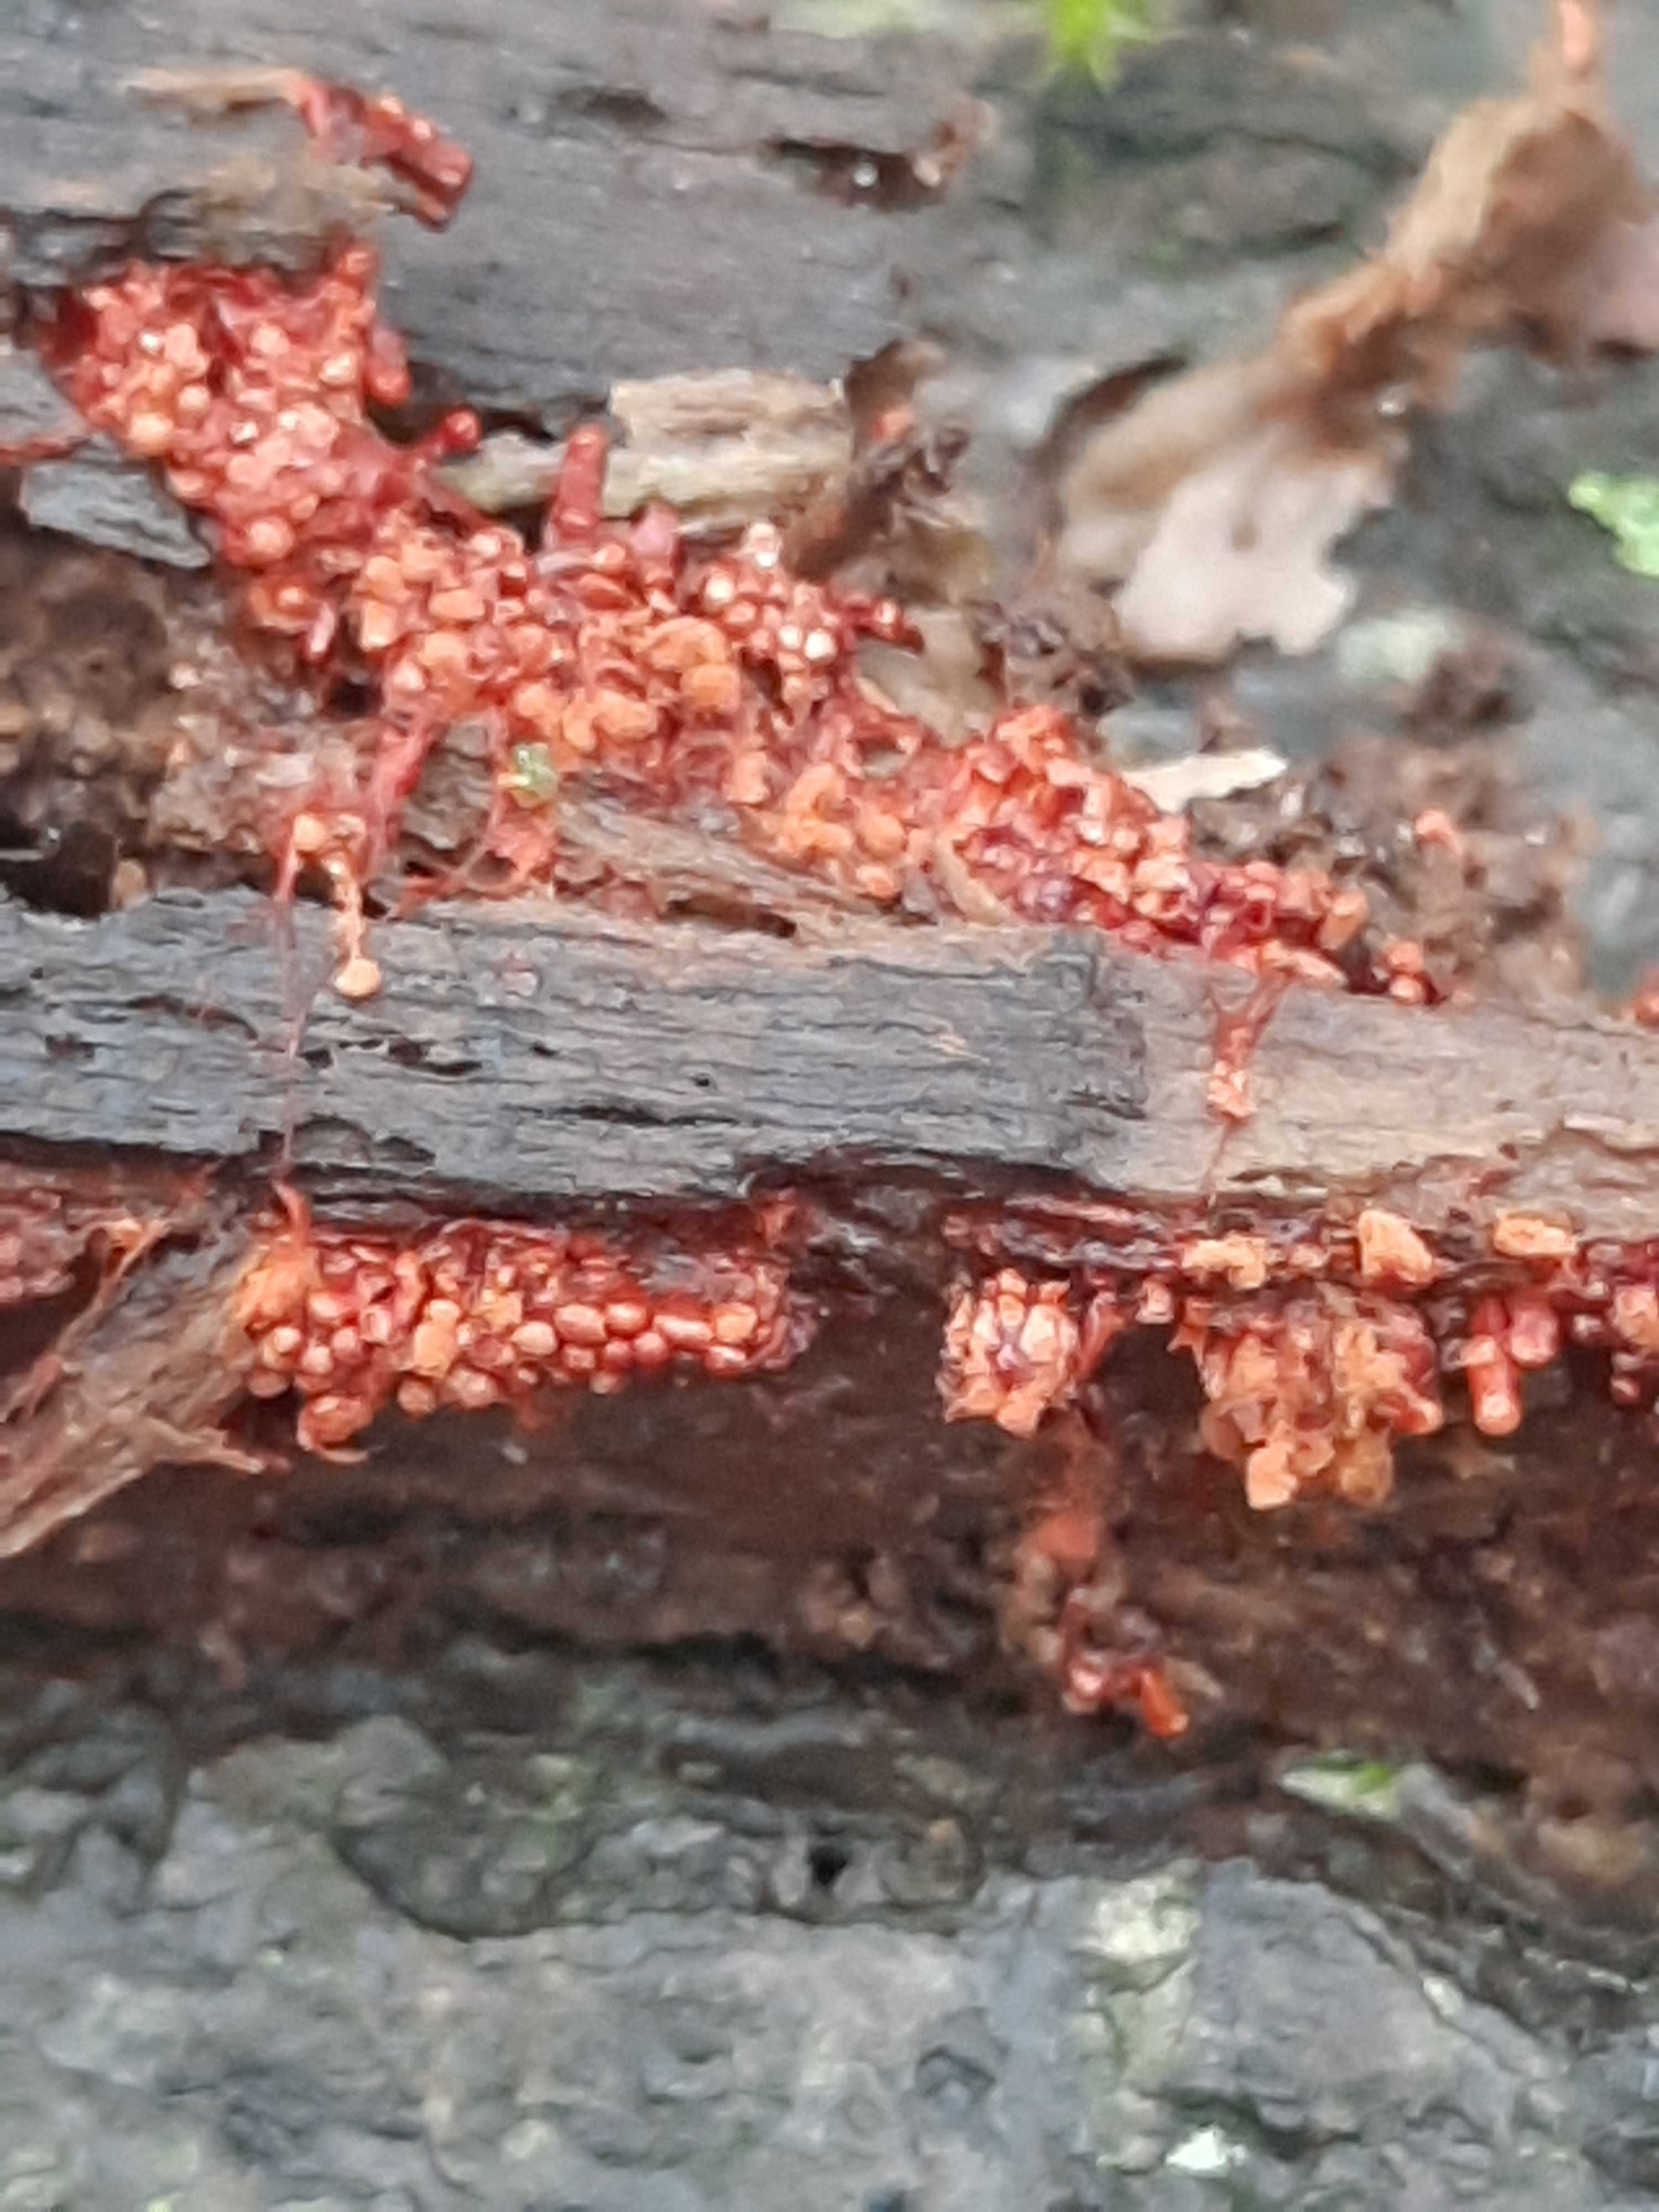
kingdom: Protozoa
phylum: Mycetozoa
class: Myxomycetes
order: Trichiales
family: Trichiaceae
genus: Metatrichia
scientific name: Metatrichia vesparia
